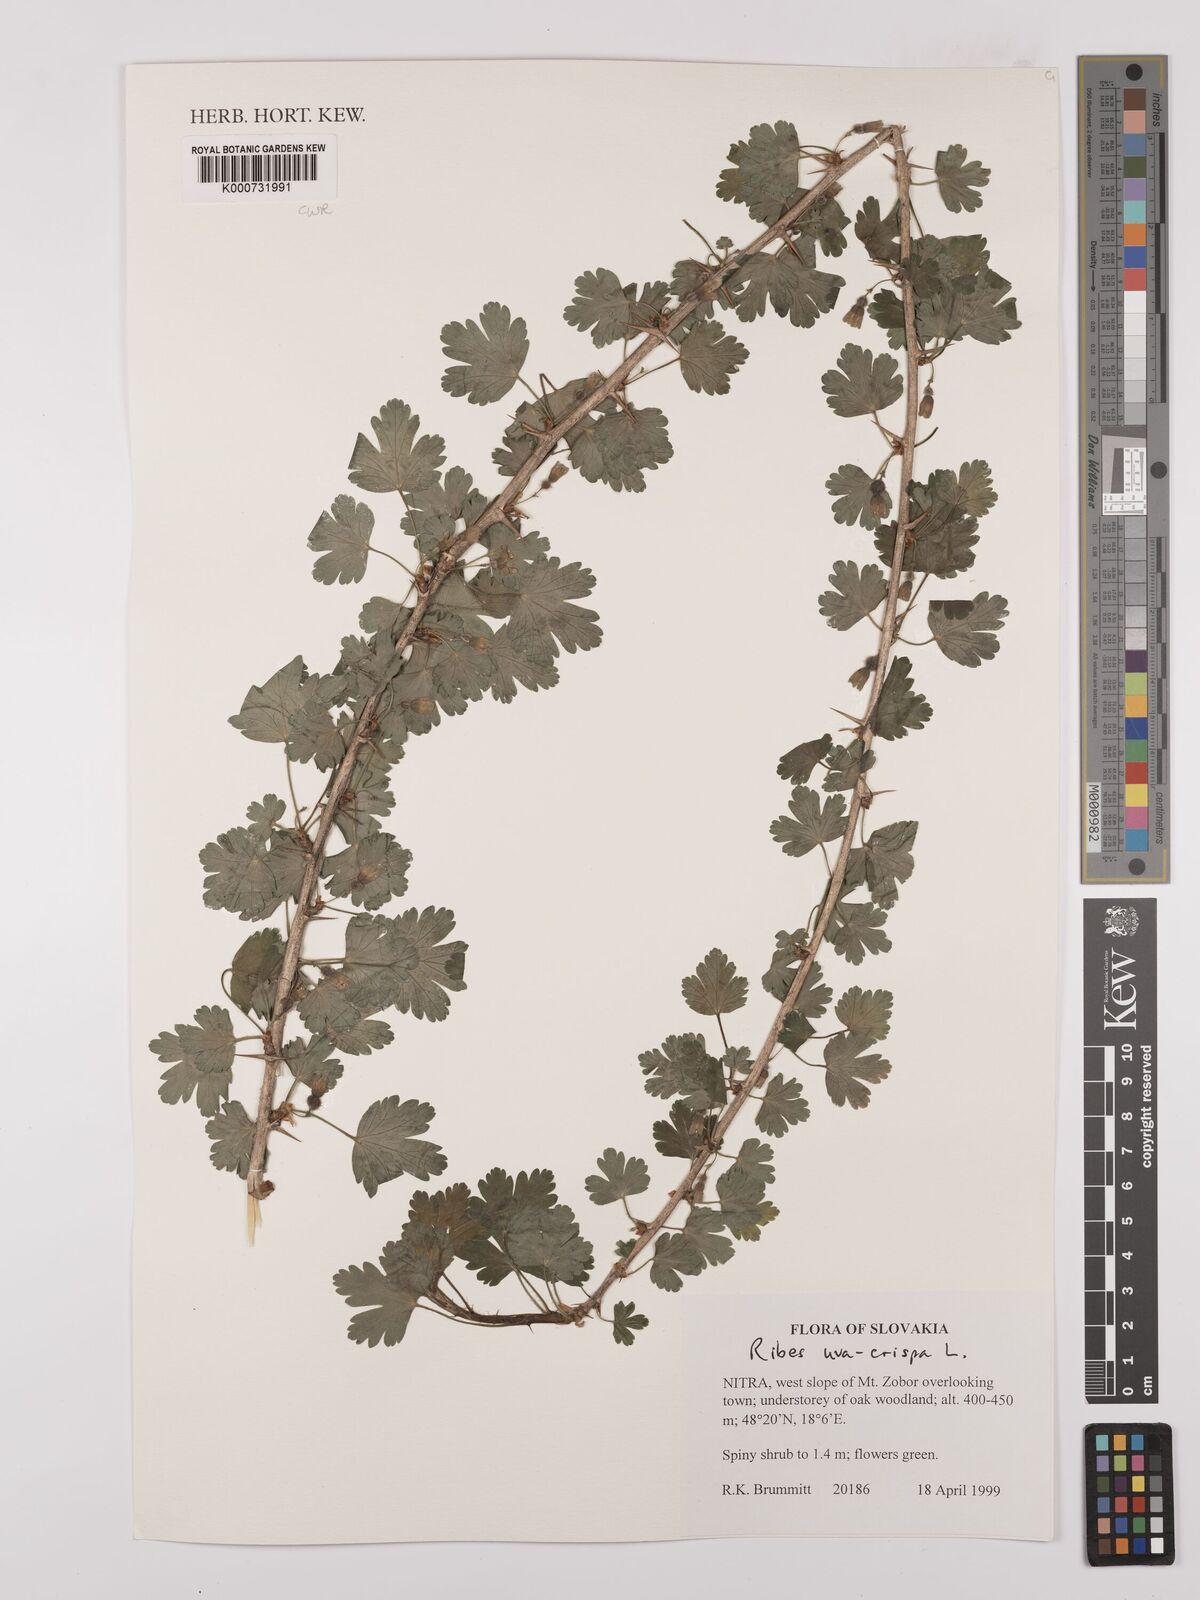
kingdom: Plantae
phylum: Tracheophyta
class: Magnoliopsida
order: Saxifragales
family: Grossulariaceae
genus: Ribes
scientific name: Ribes uva-crispa
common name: Gooseberry
